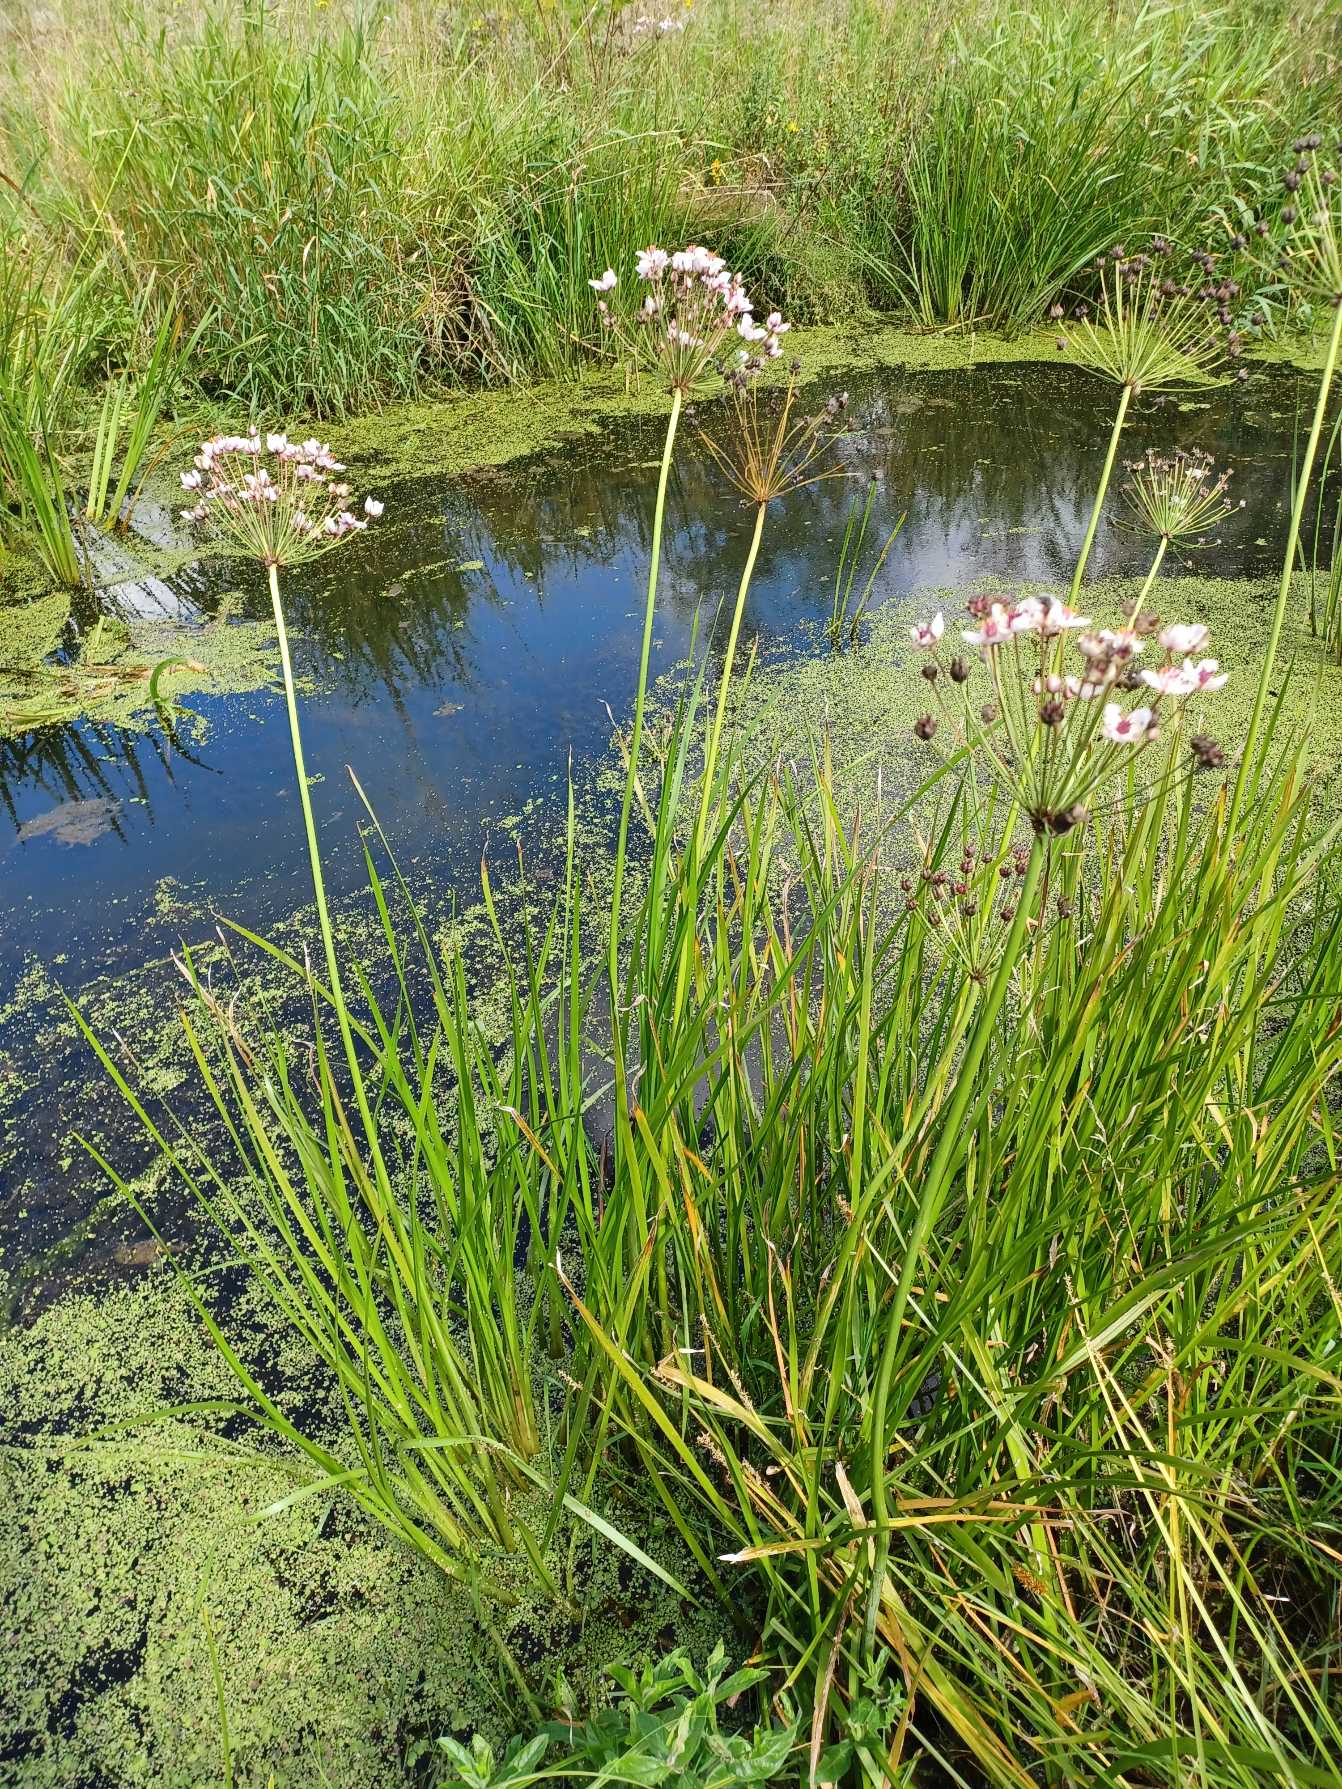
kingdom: Plantae
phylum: Tracheophyta
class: Liliopsida
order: Alismatales
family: Butomaceae
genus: Butomus
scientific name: Butomus umbellatus
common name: Brudelys
